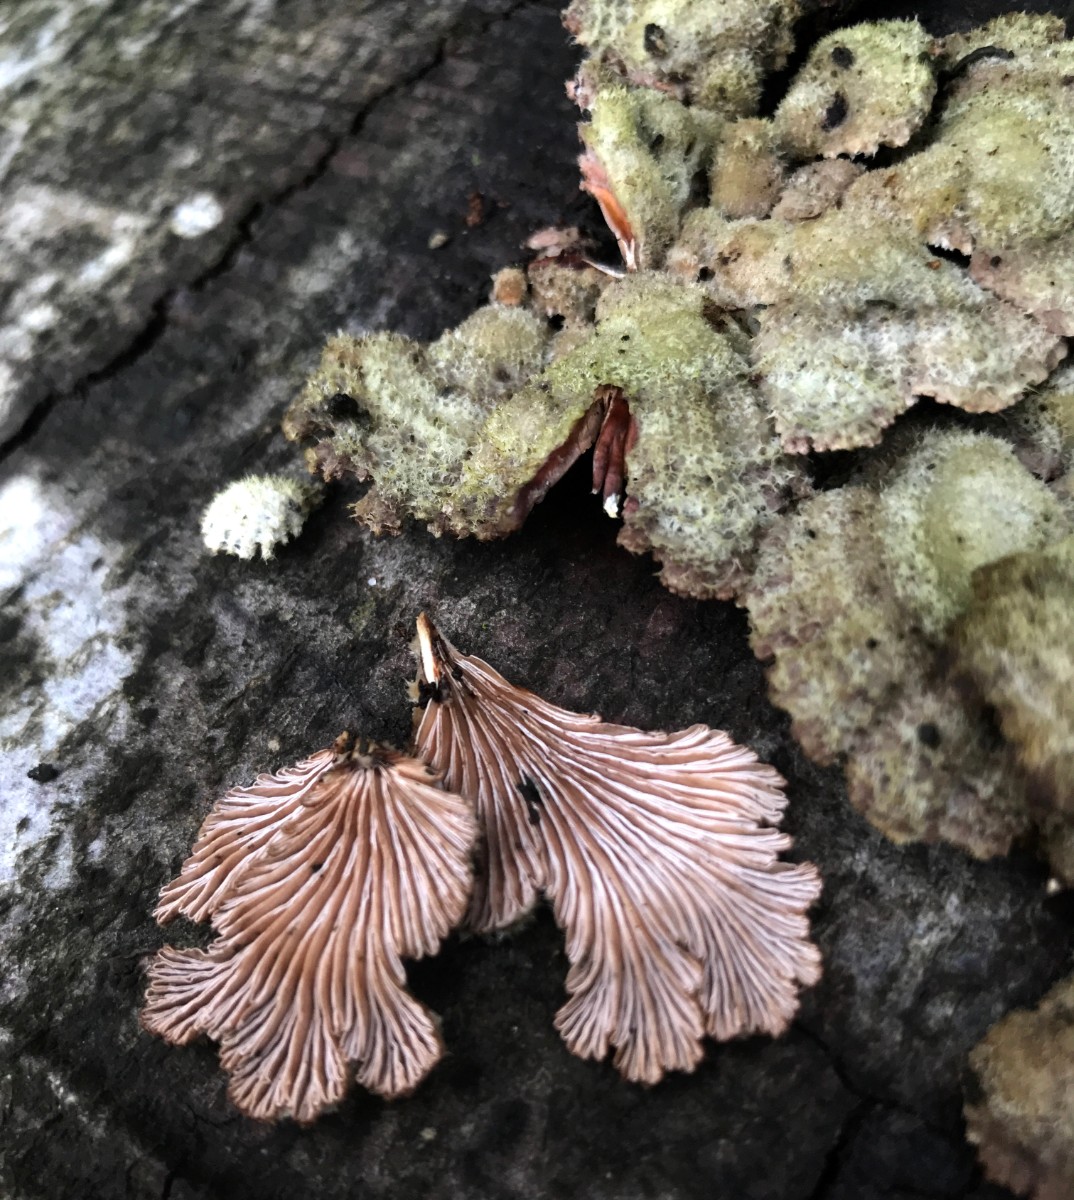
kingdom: Fungi
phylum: Basidiomycota
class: Agaricomycetes
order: Agaricales
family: Schizophyllaceae
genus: Schizophyllum
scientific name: Schizophyllum commune
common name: kløvblad
